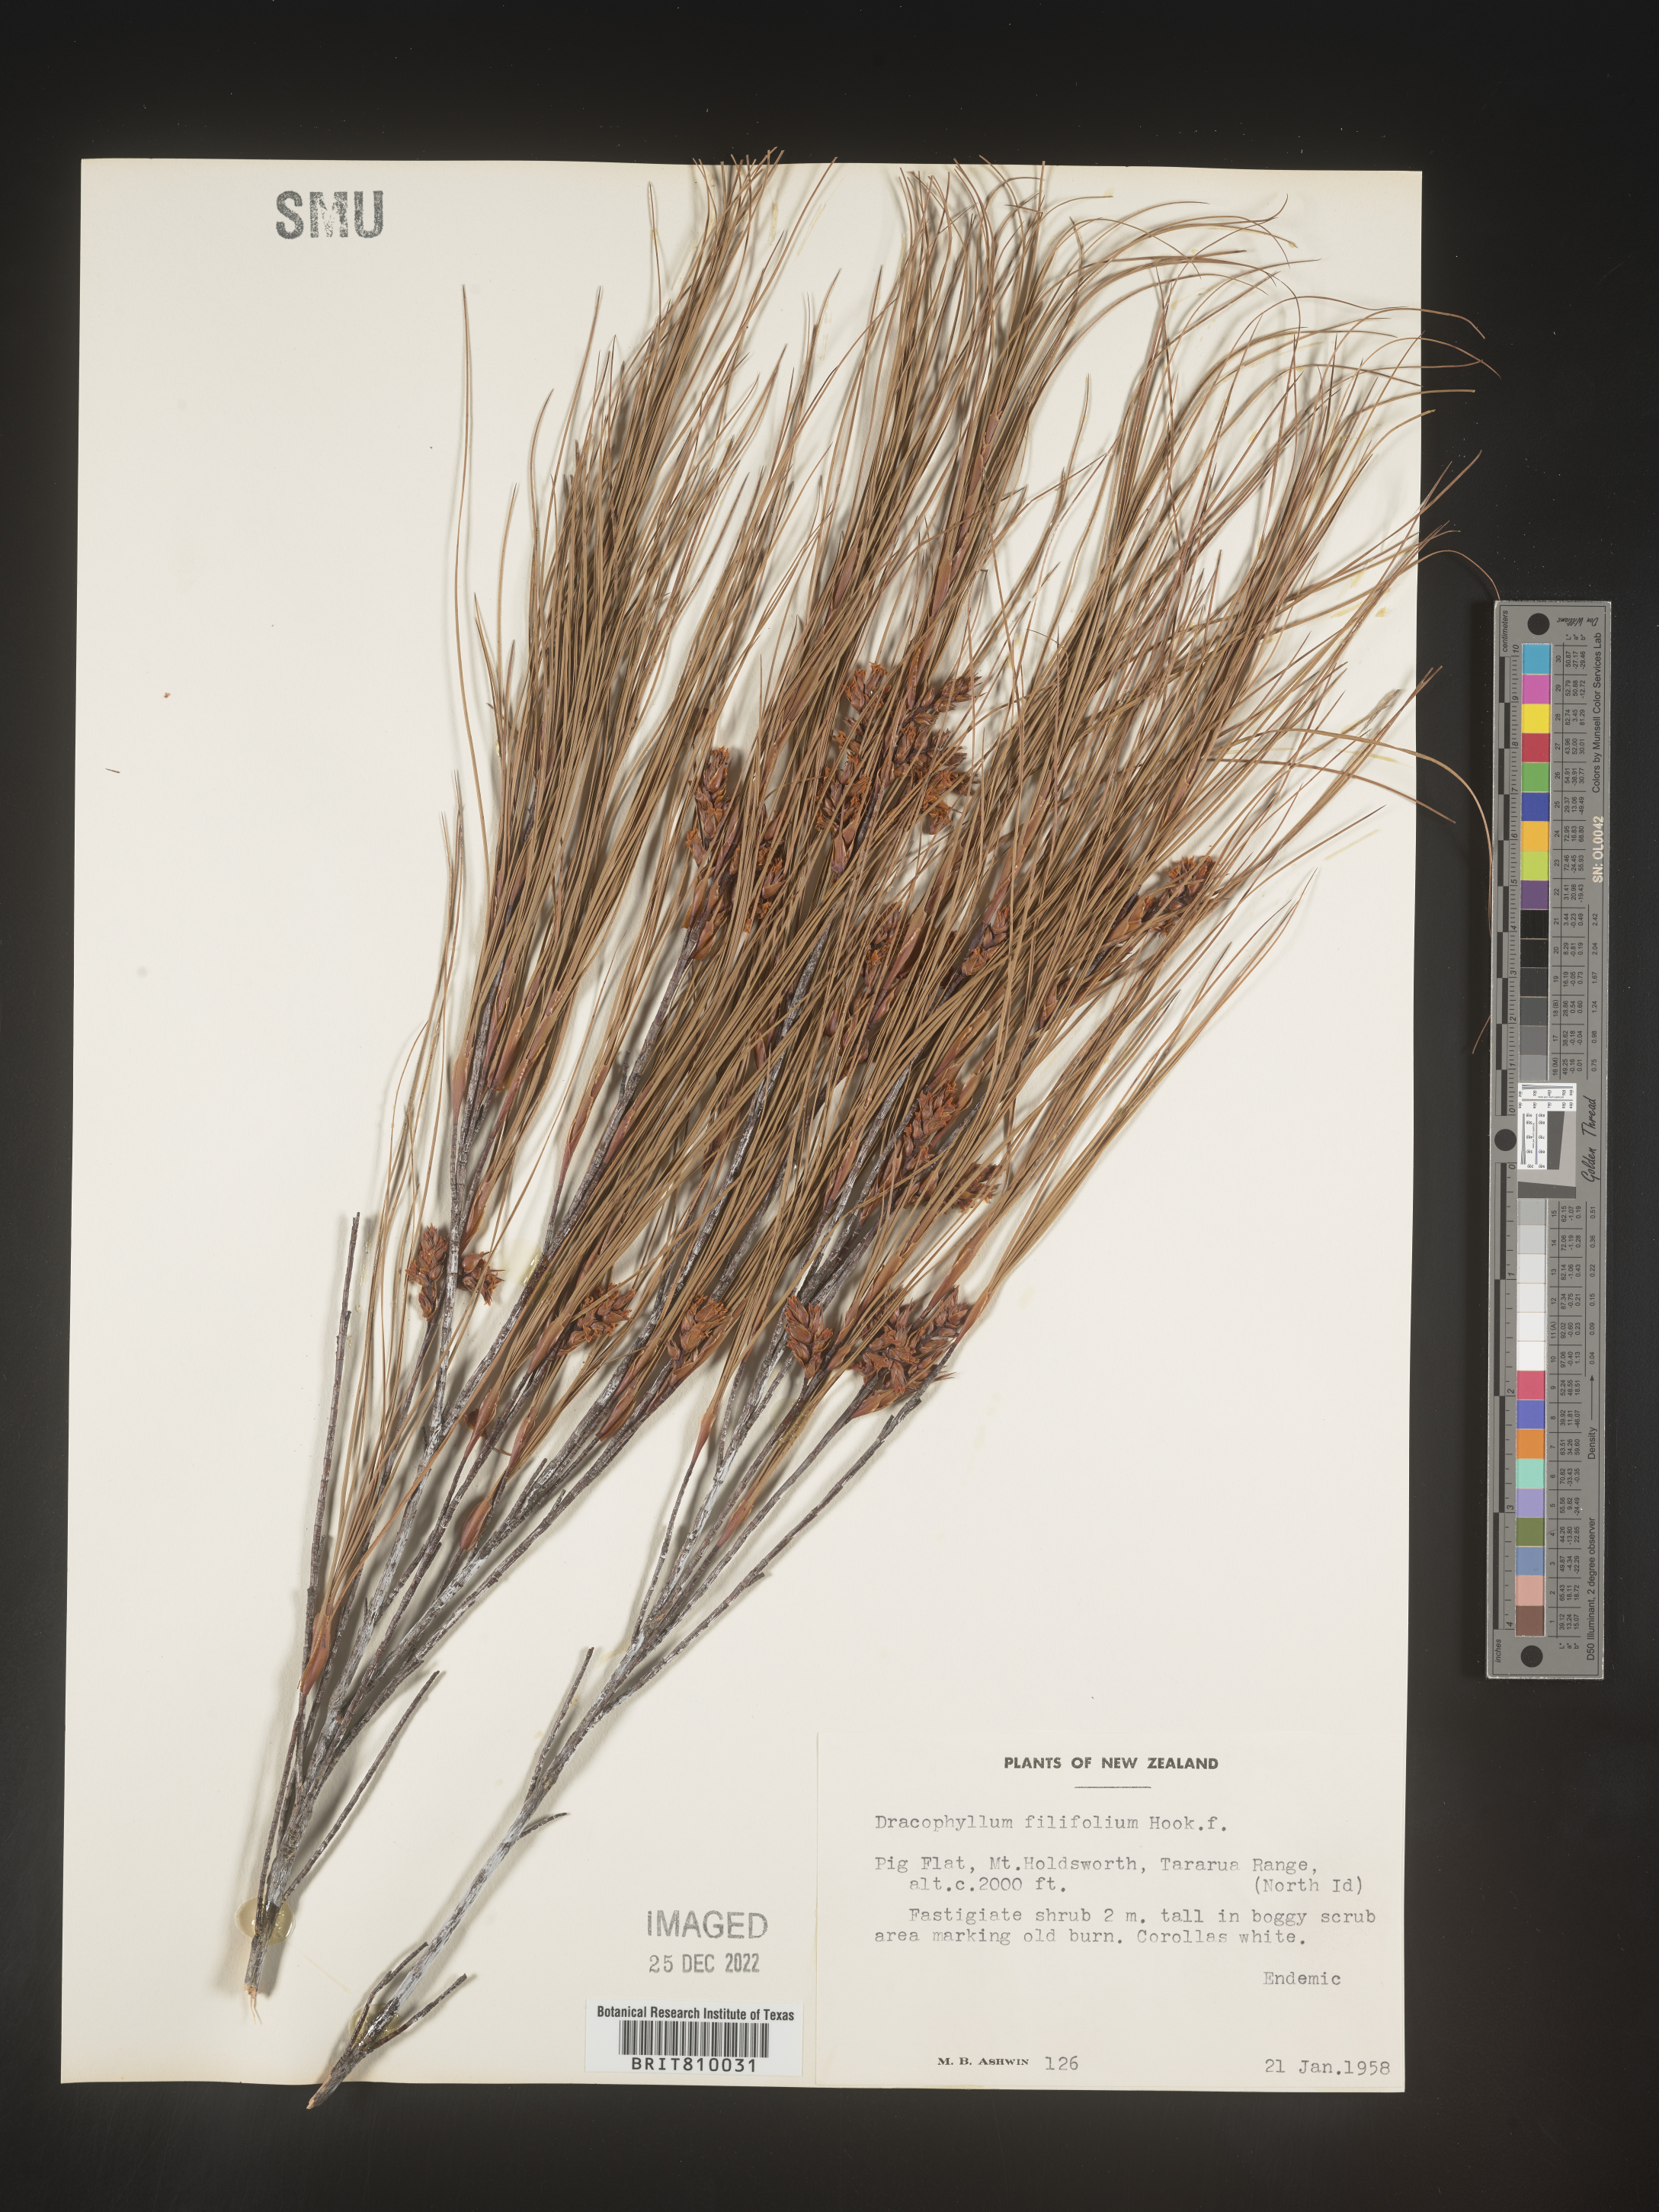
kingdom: Plantae
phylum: Tracheophyta
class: Magnoliopsida
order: Ericales
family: Ericaceae
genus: Dracophyllum
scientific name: Dracophyllum
